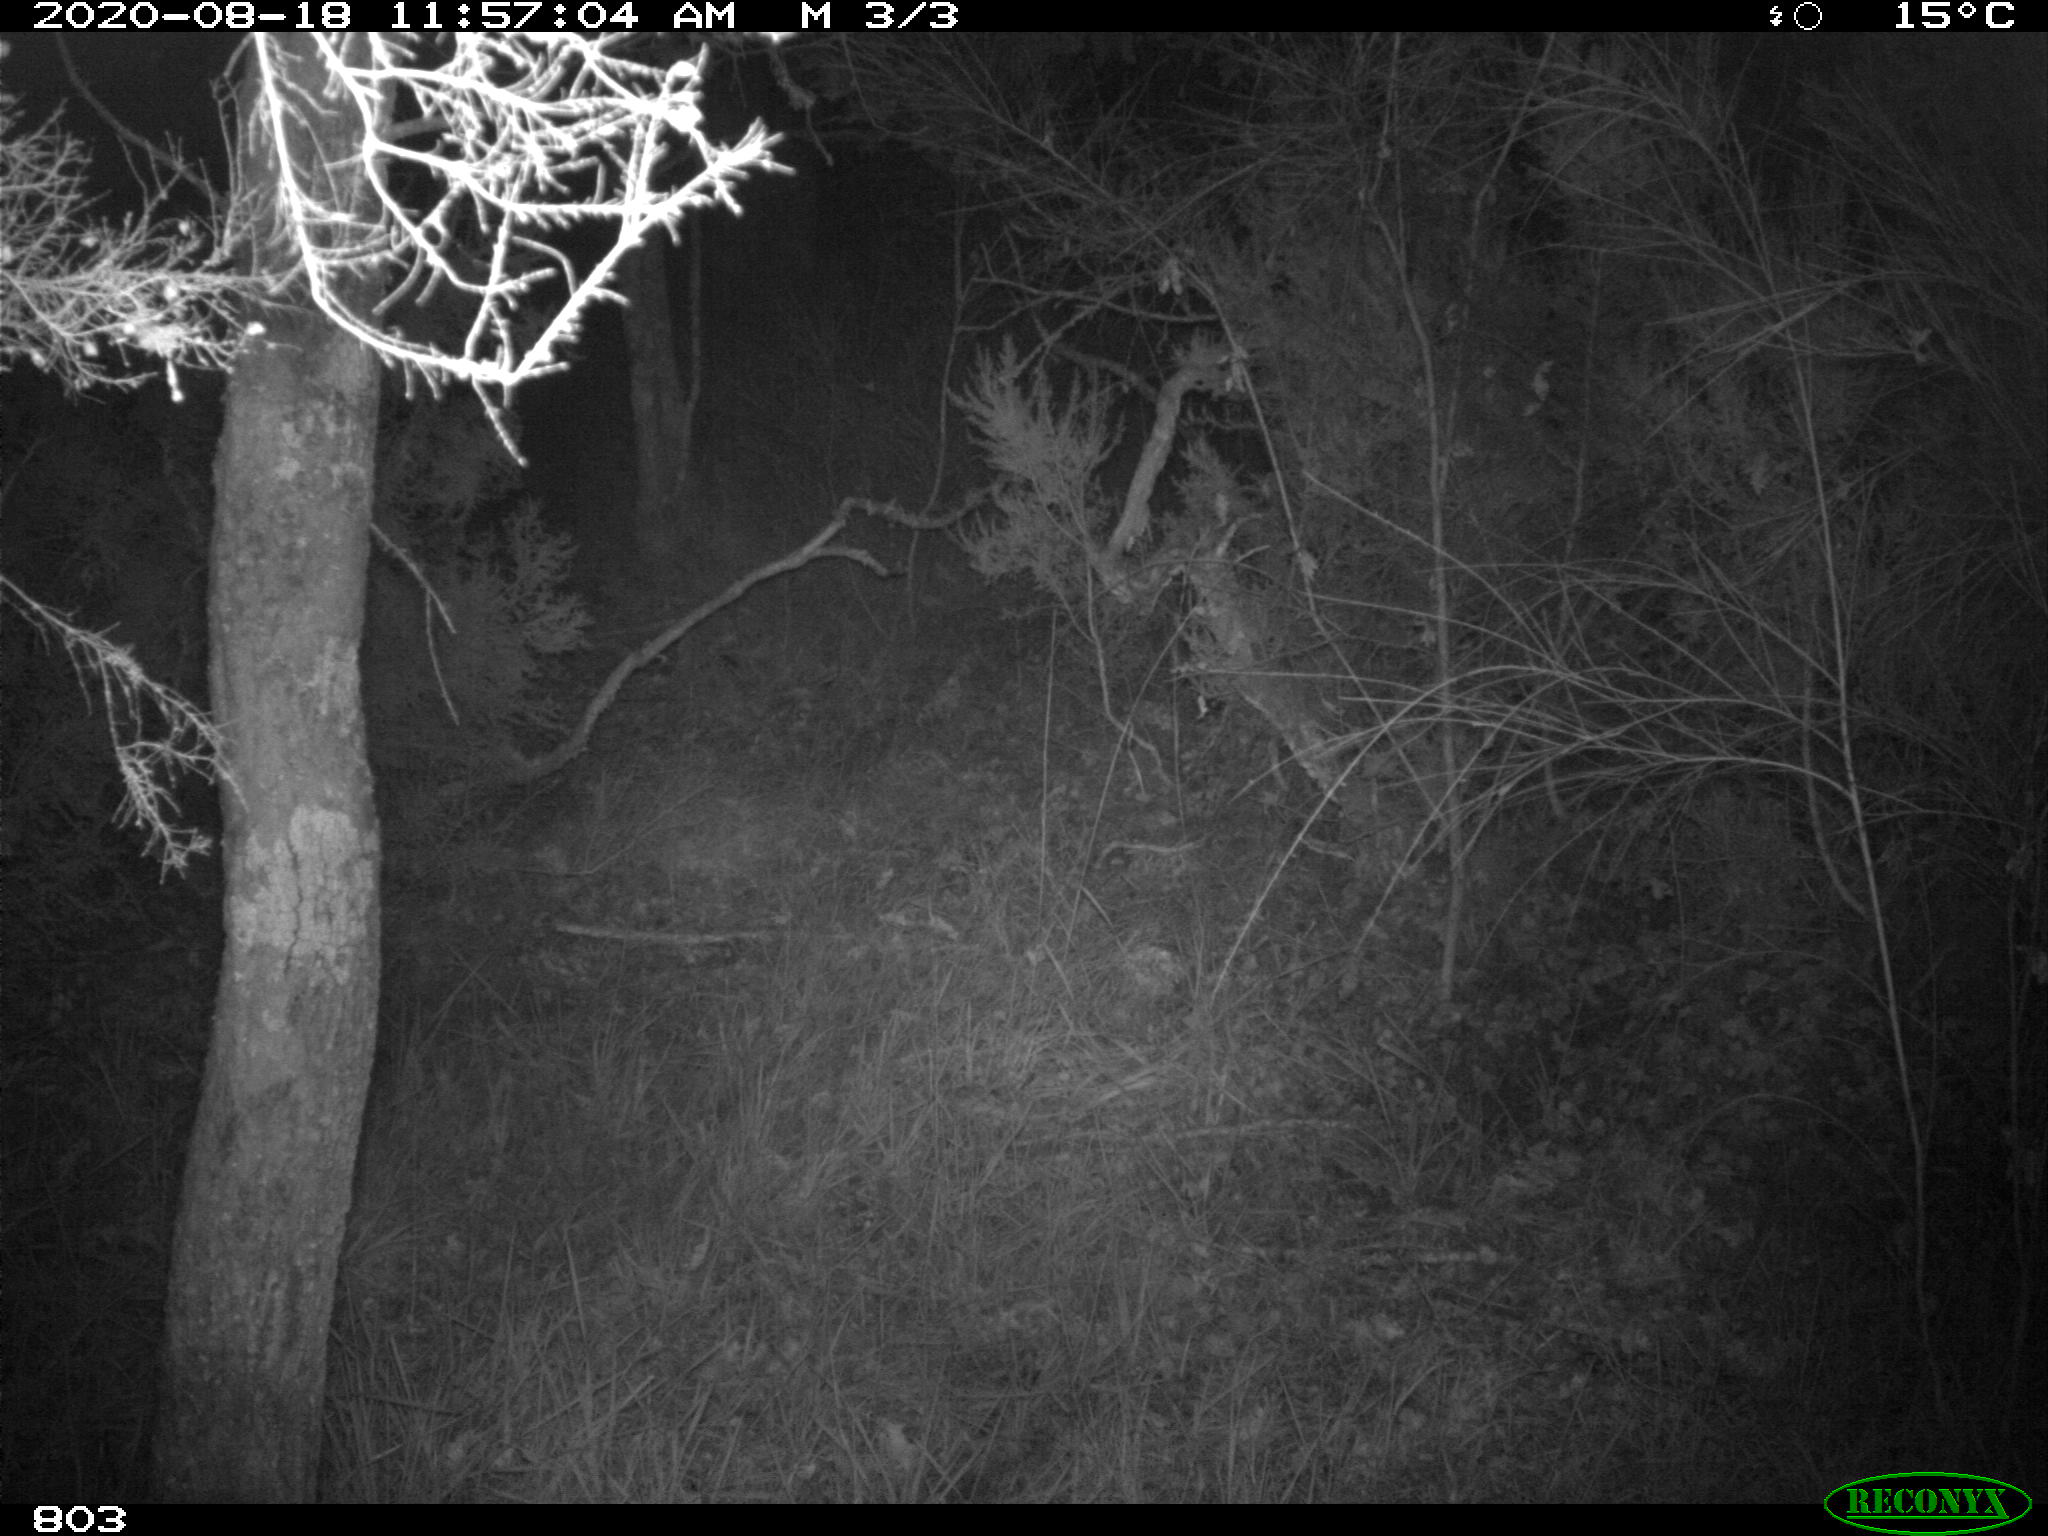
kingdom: Animalia
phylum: Chordata
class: Mammalia
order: Artiodactyla
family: Suidae
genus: Sus
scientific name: Sus scrofa
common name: Wild boar
